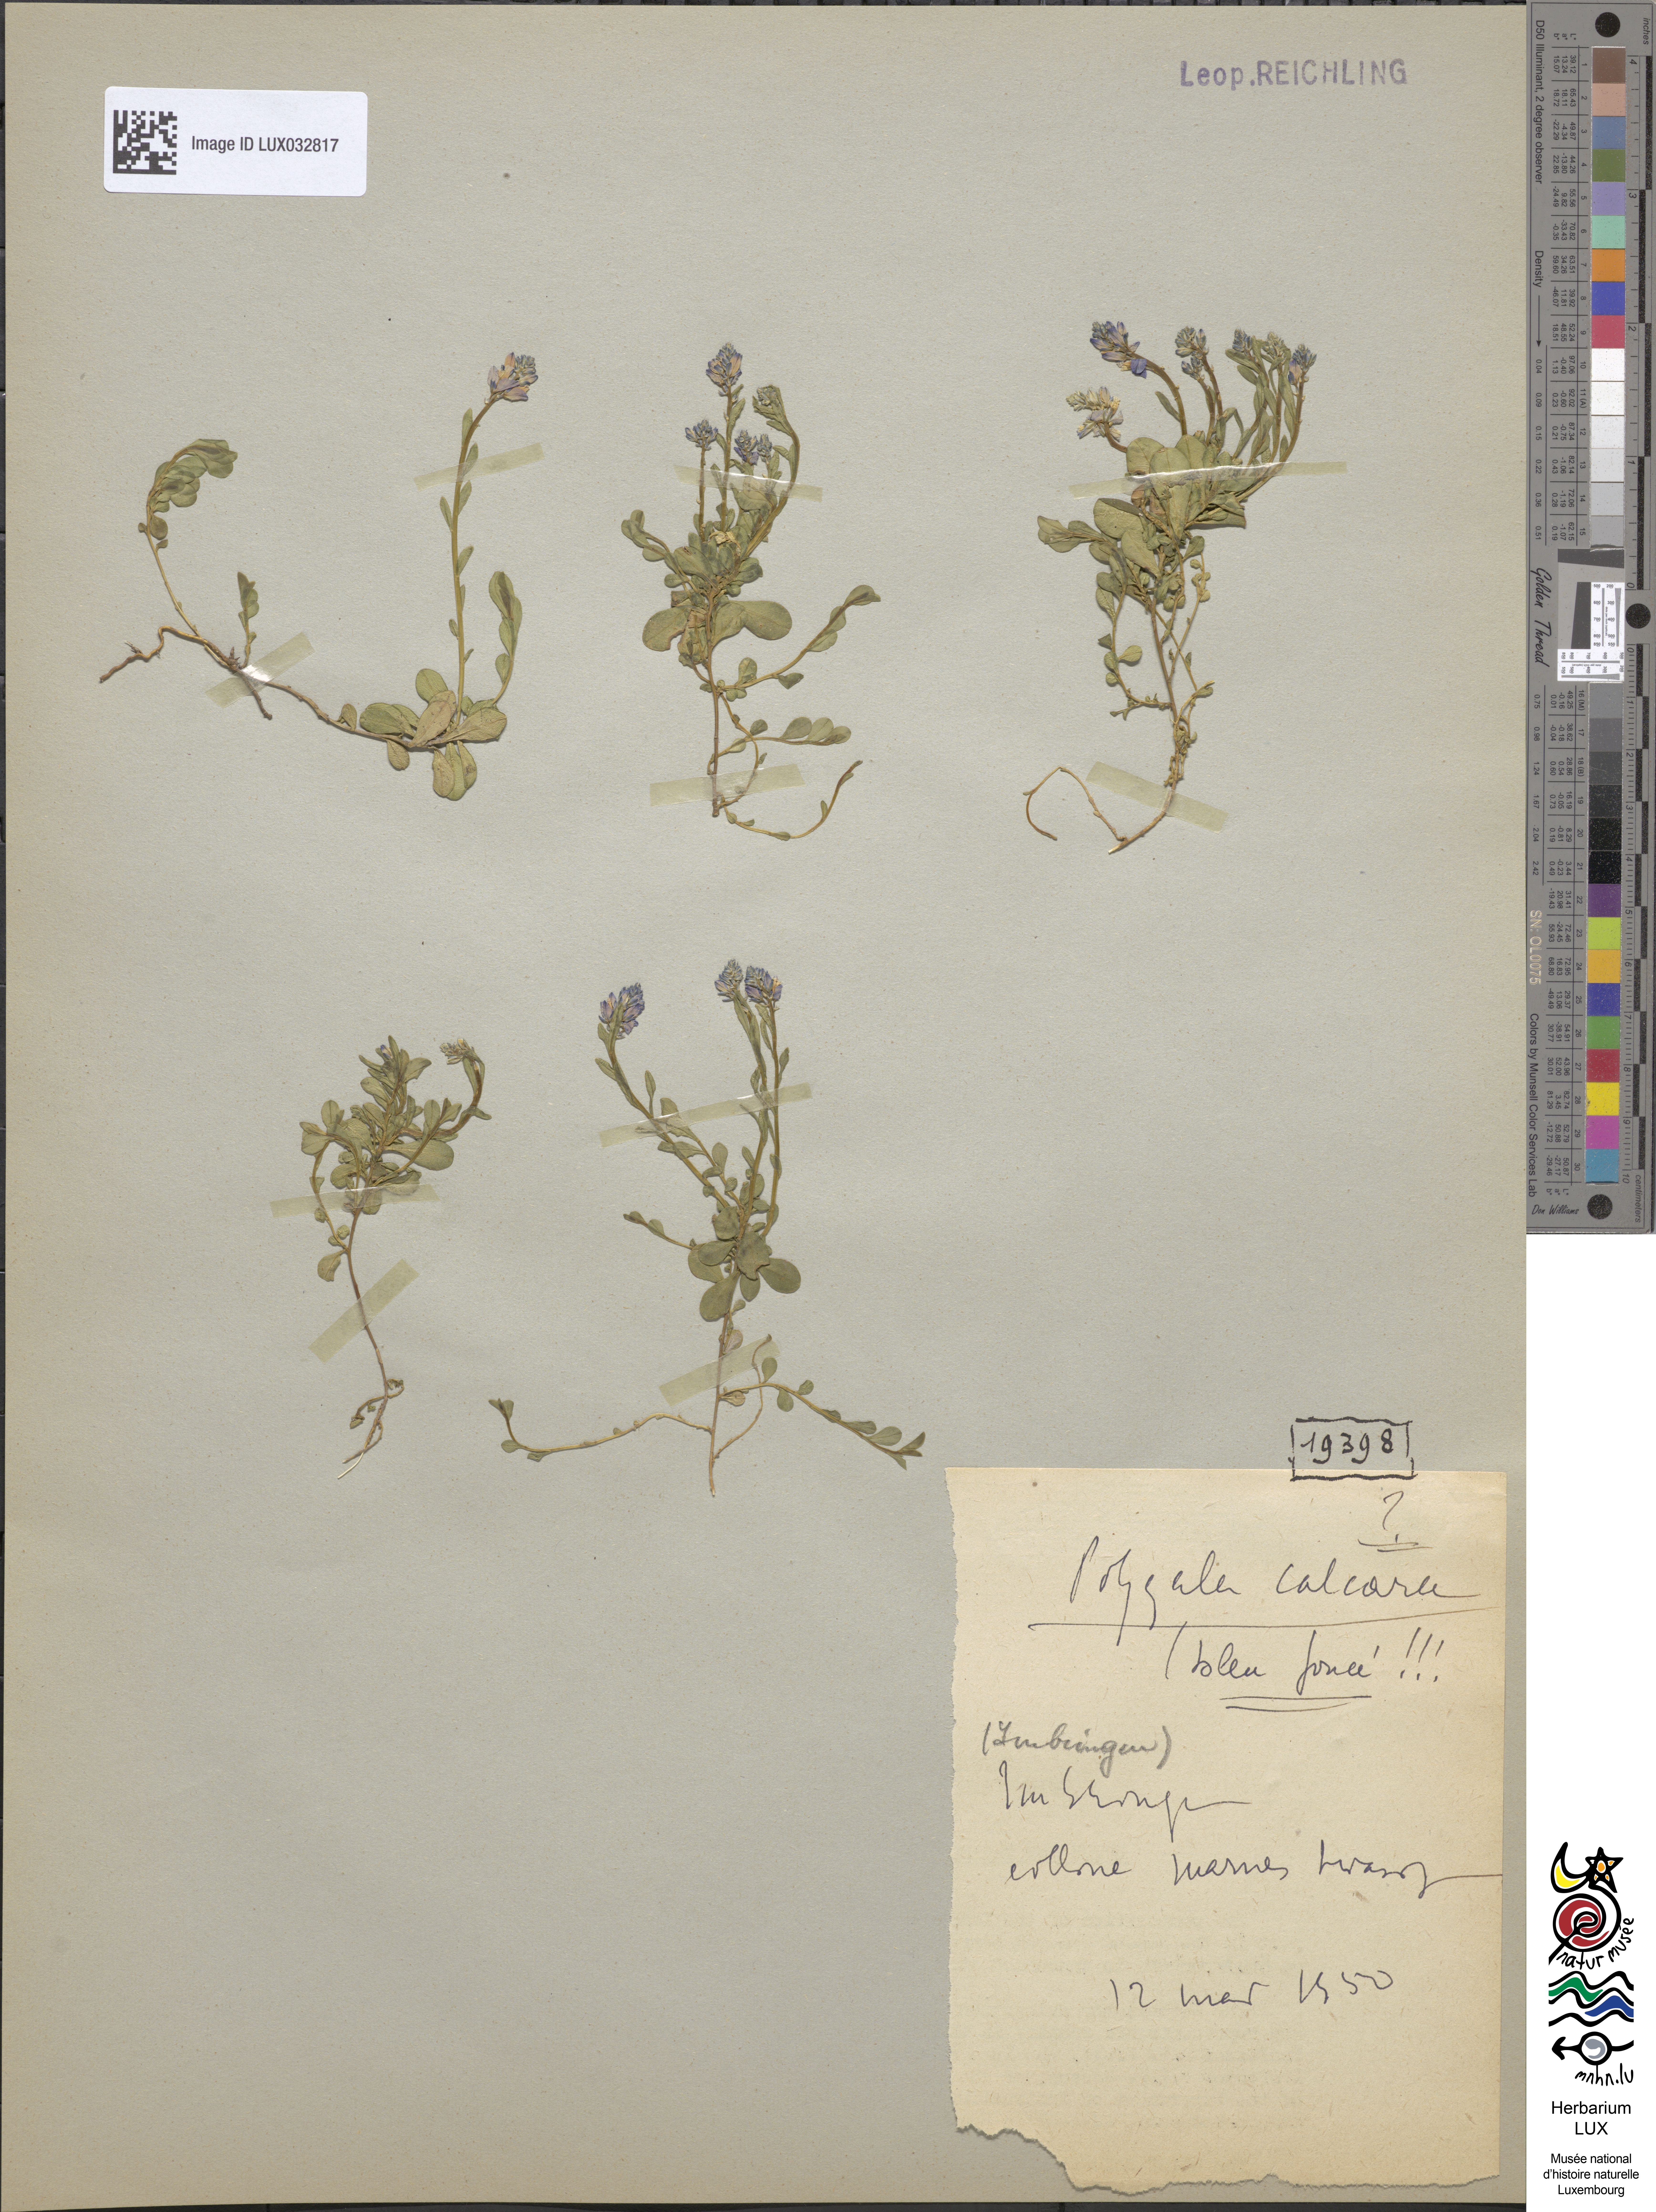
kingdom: Plantae
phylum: Tracheophyta
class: Magnoliopsida
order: Fabales
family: Polygalaceae
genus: Polygala
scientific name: Polygala calcarea
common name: Chalk milkwort
